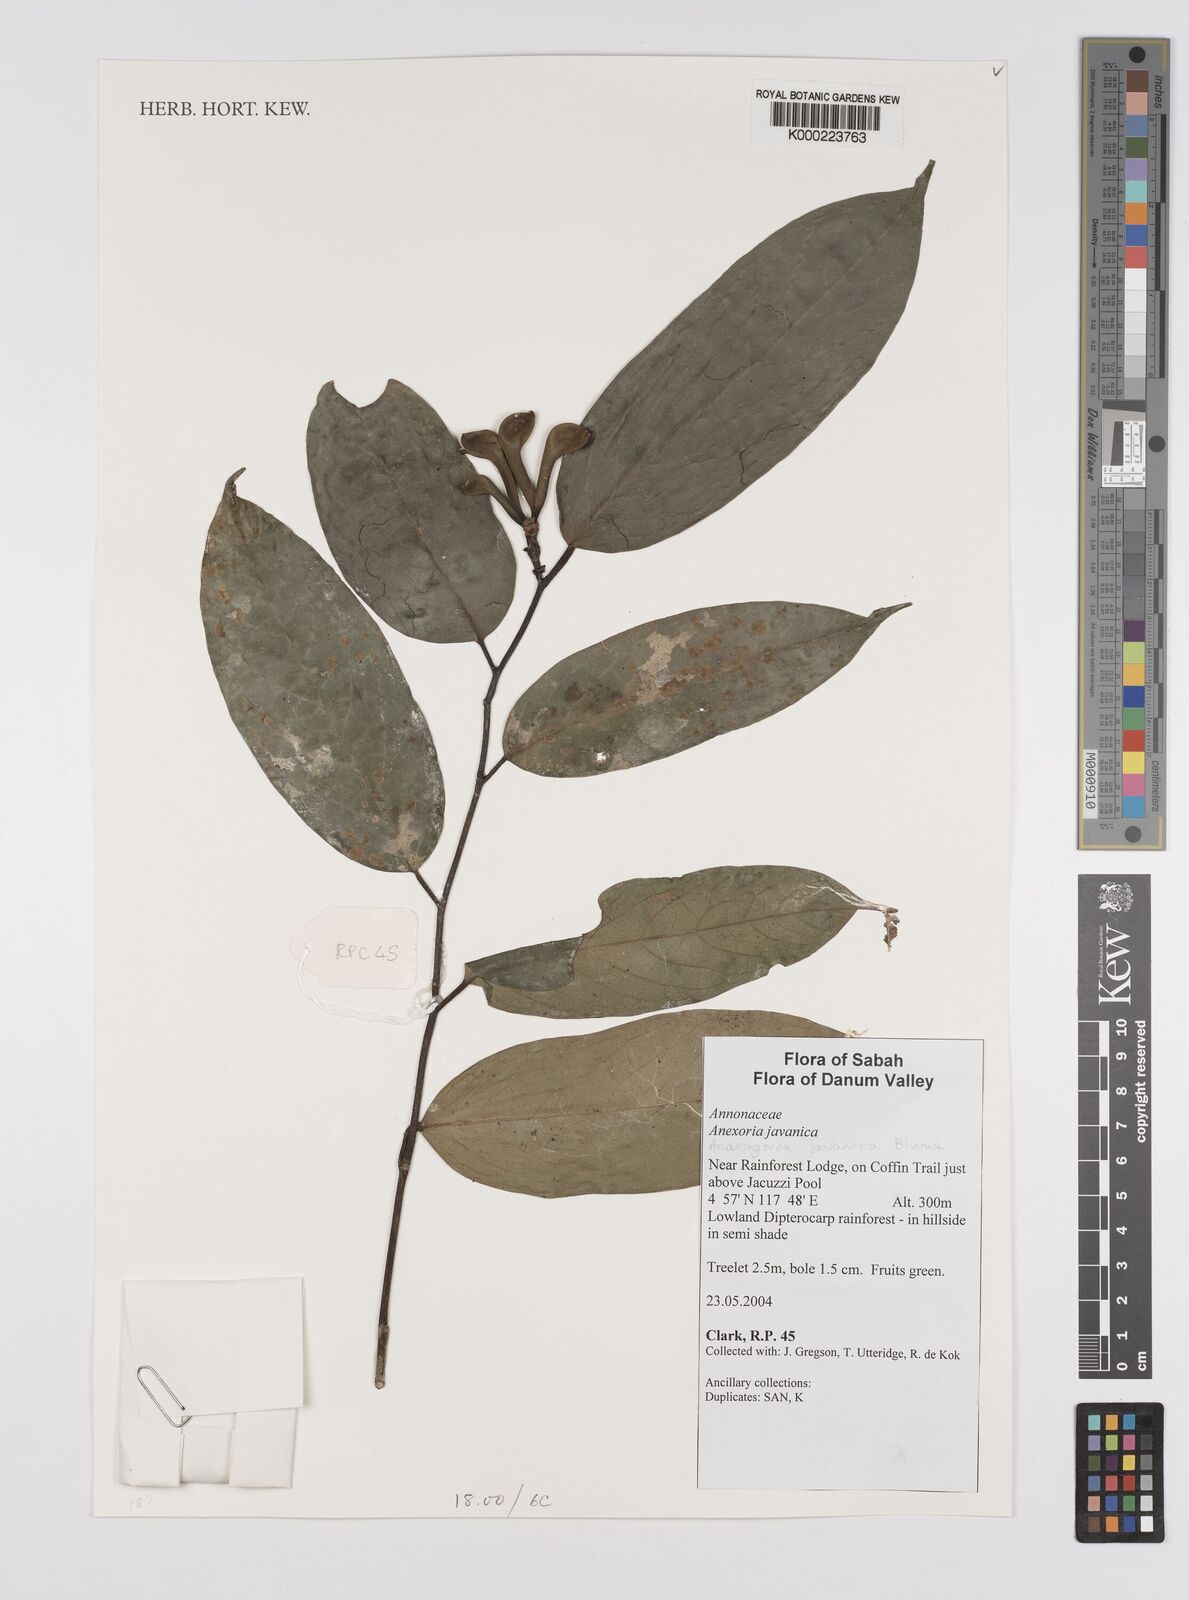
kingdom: Plantae
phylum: Tracheophyta
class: Magnoliopsida
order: Magnoliales
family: Annonaceae
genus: Anaxagorea
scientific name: Anaxagorea javanica
